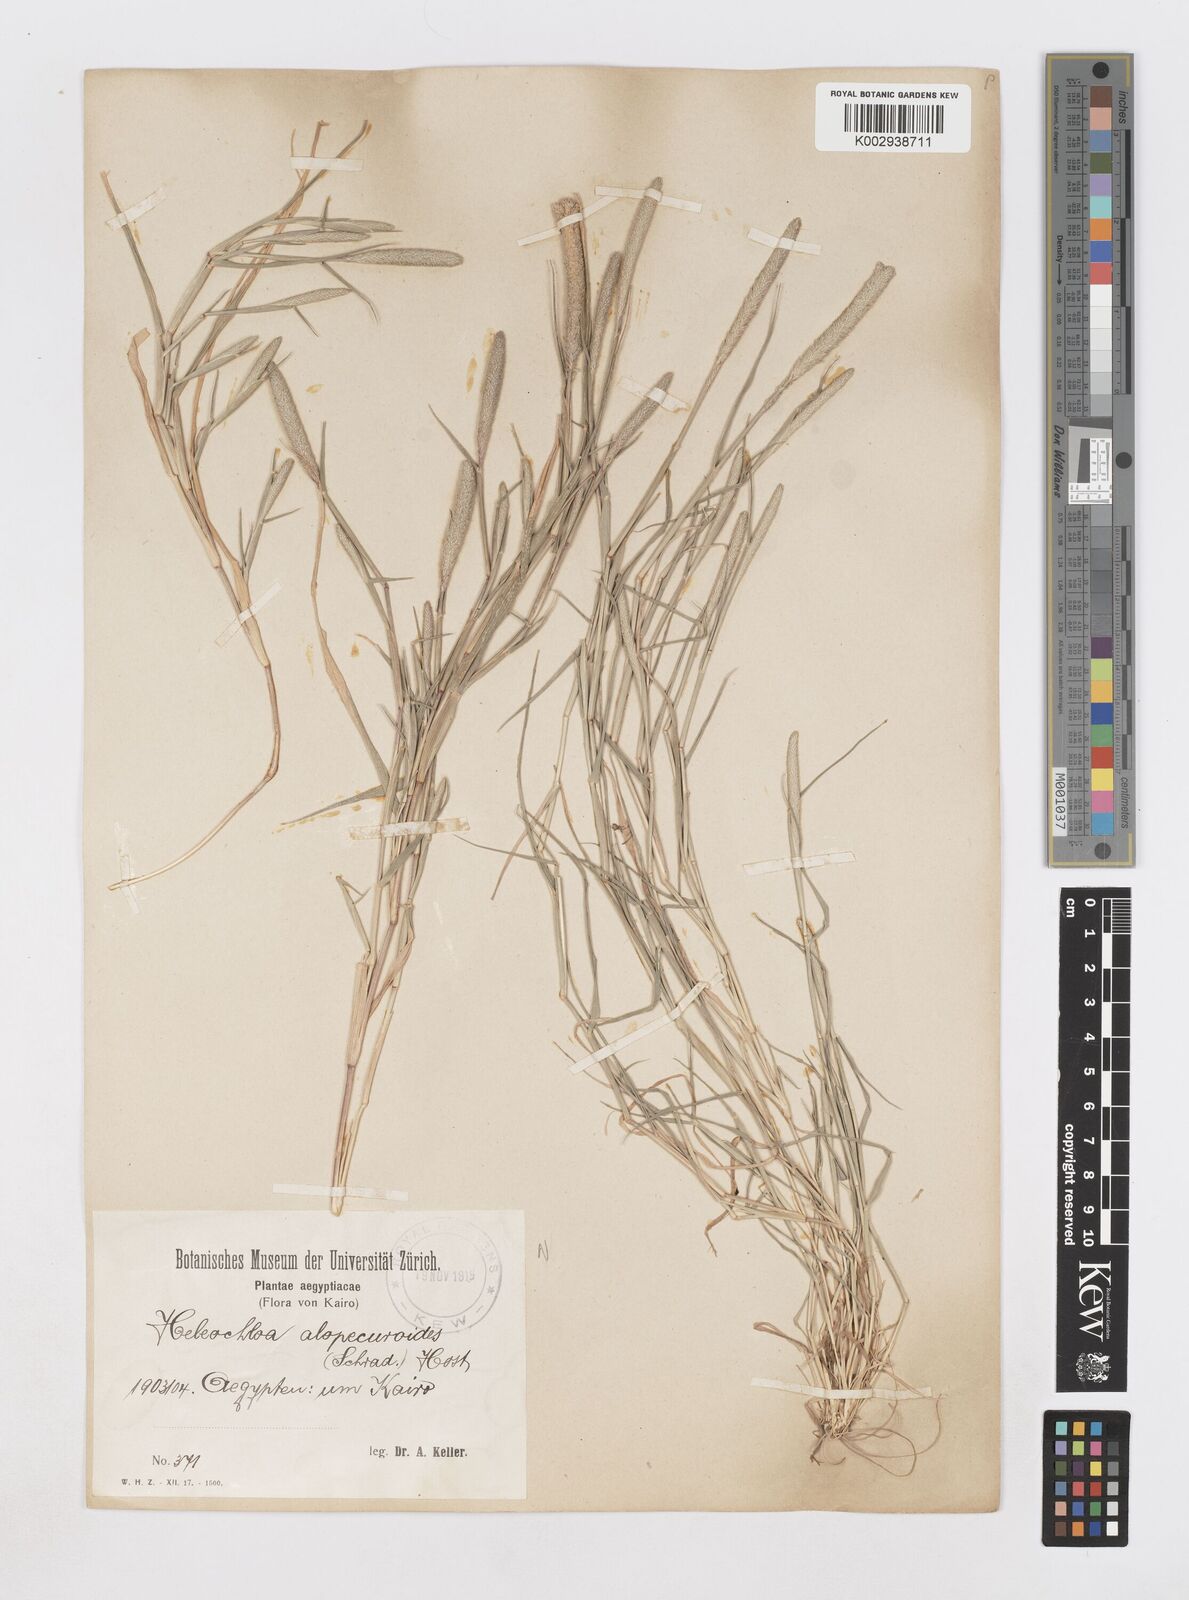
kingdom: Plantae
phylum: Tracheophyta
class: Liliopsida
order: Poales
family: Poaceae
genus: Sporobolus
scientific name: Sporobolus alopecuroides
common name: Foxtail pricklegrass
